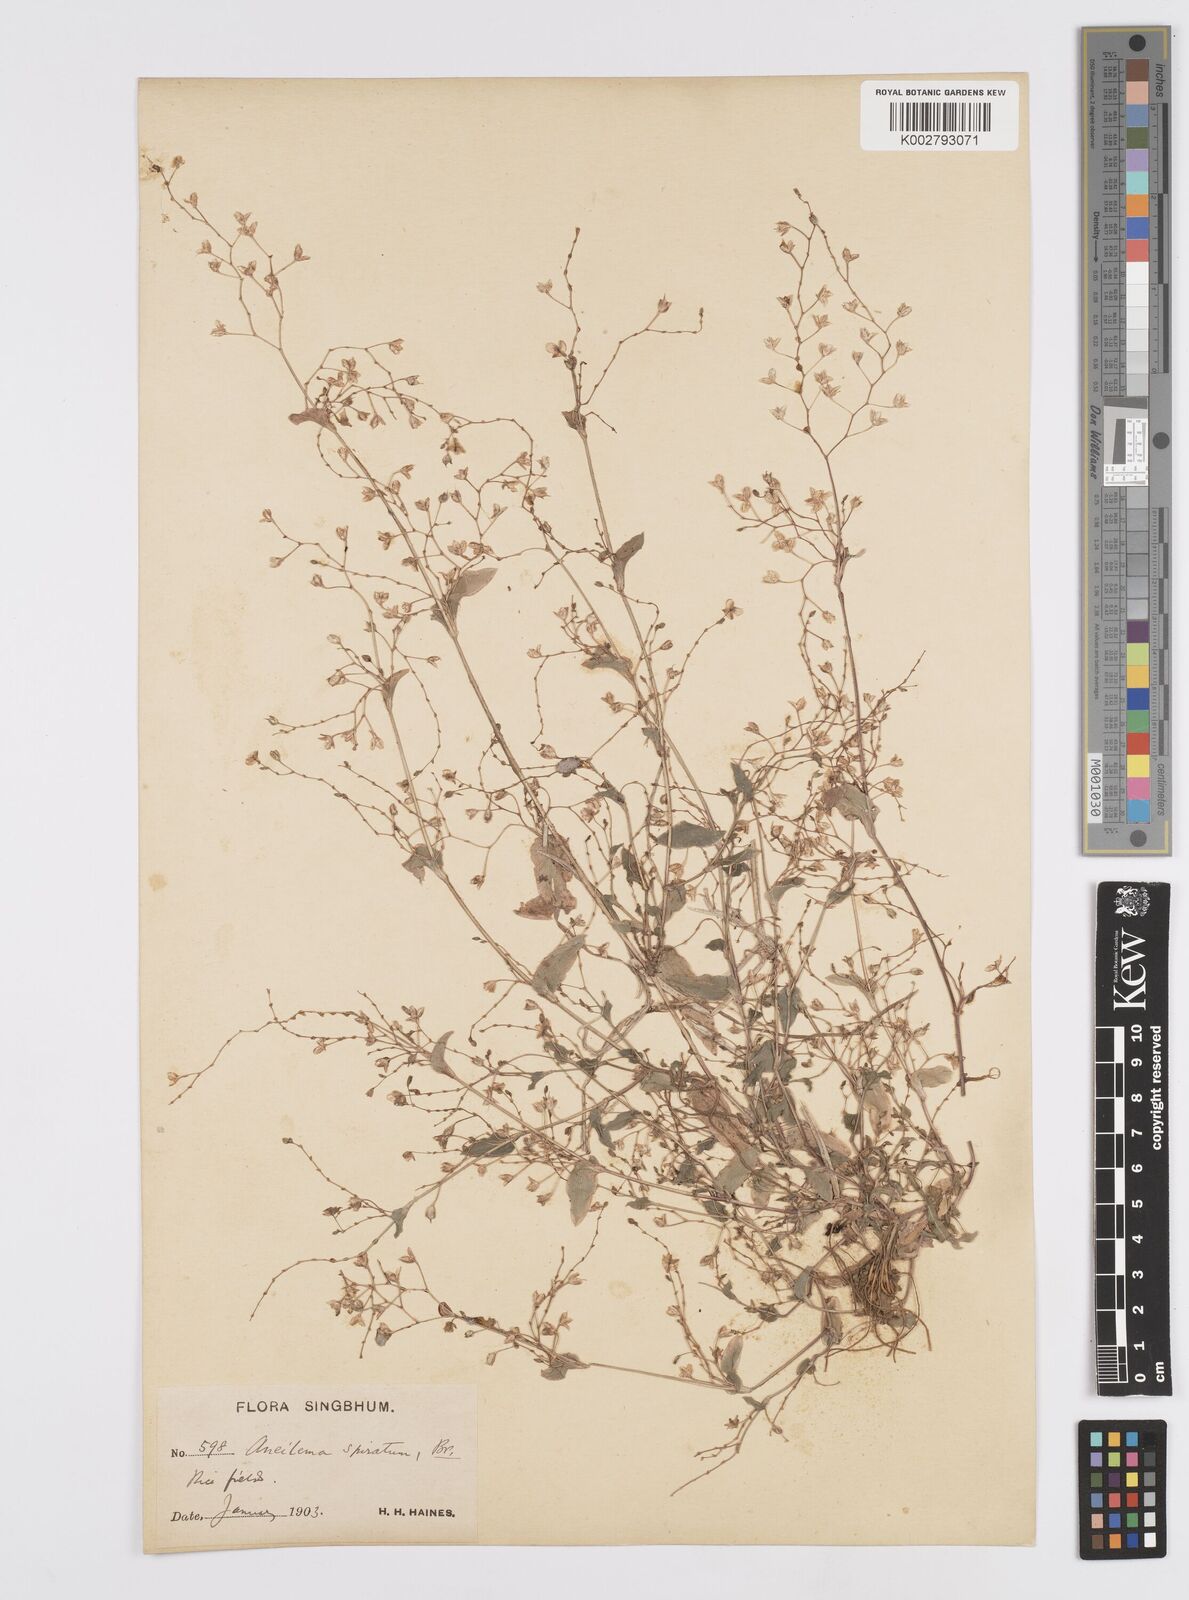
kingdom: Plantae
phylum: Tracheophyta
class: Liliopsida
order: Commelinales
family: Commelinaceae
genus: Murdannia
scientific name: Murdannia spirata
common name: Asiatic dewflower
